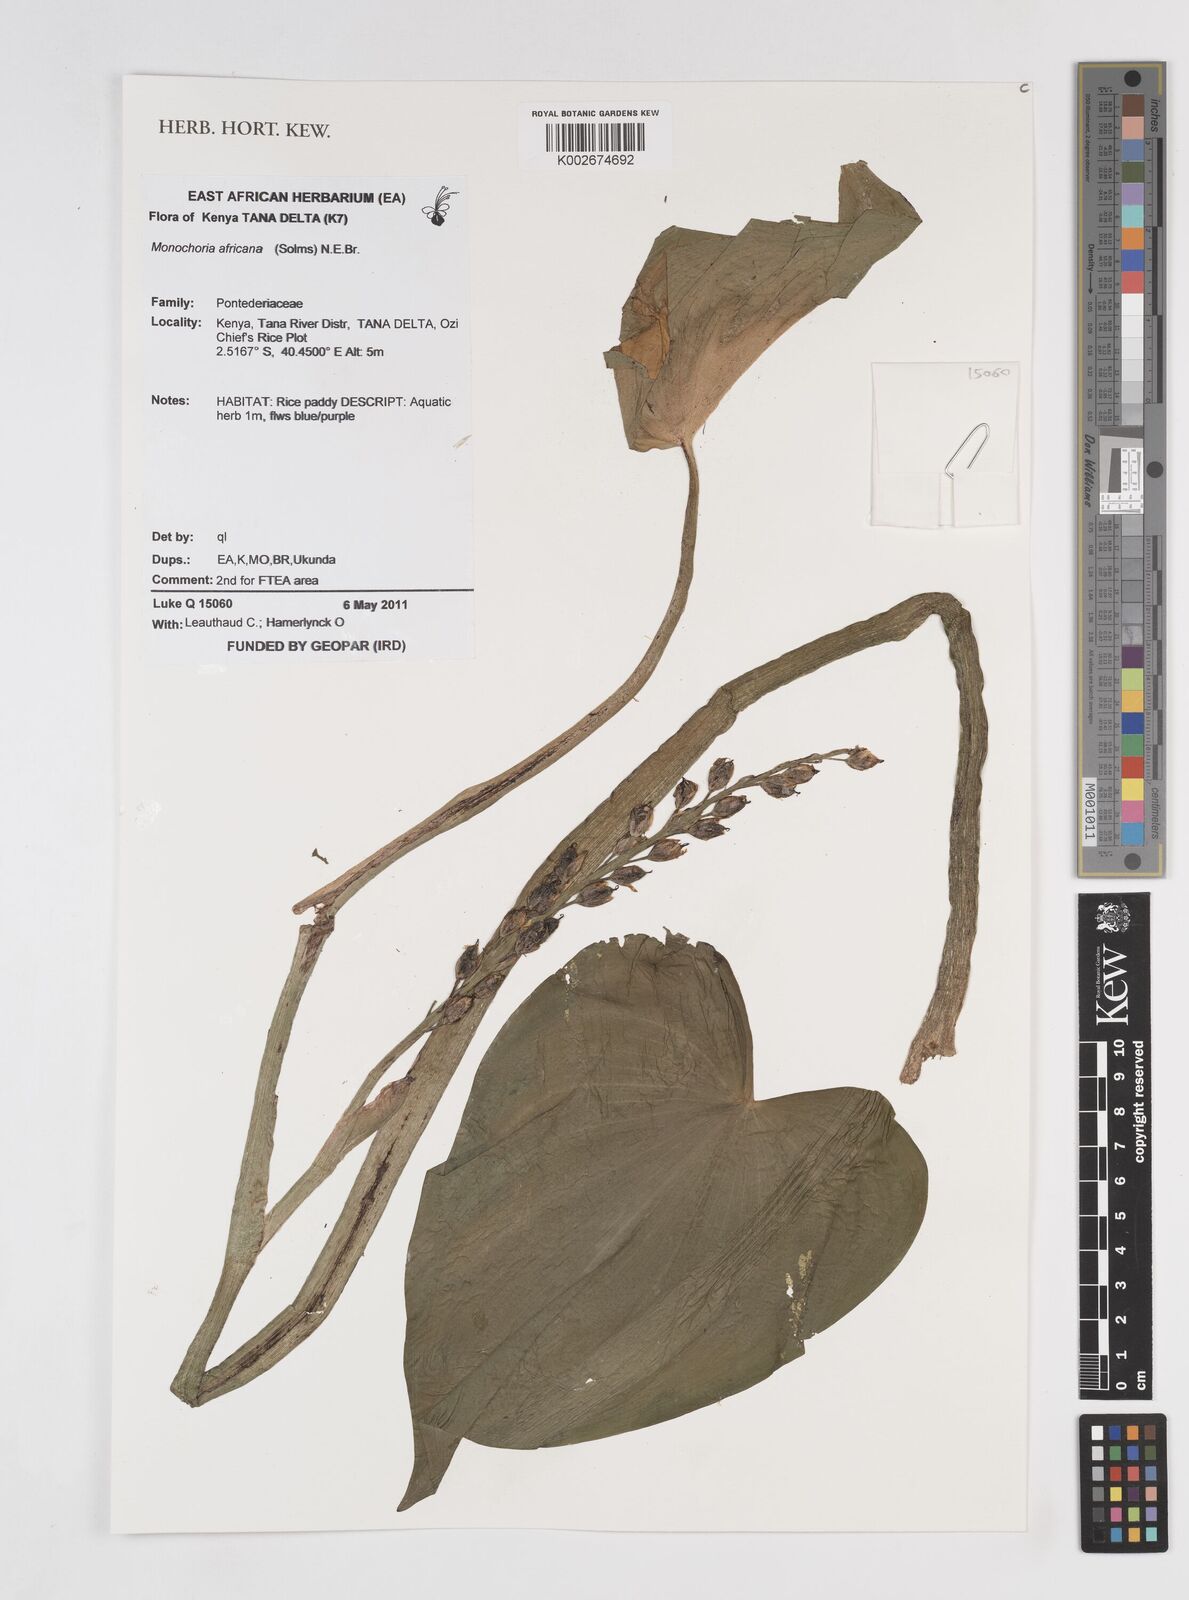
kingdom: Plantae
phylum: Tracheophyta
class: Liliopsida
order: Commelinales
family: Pontederiaceae
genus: Pontederia
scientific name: Pontederia africana
